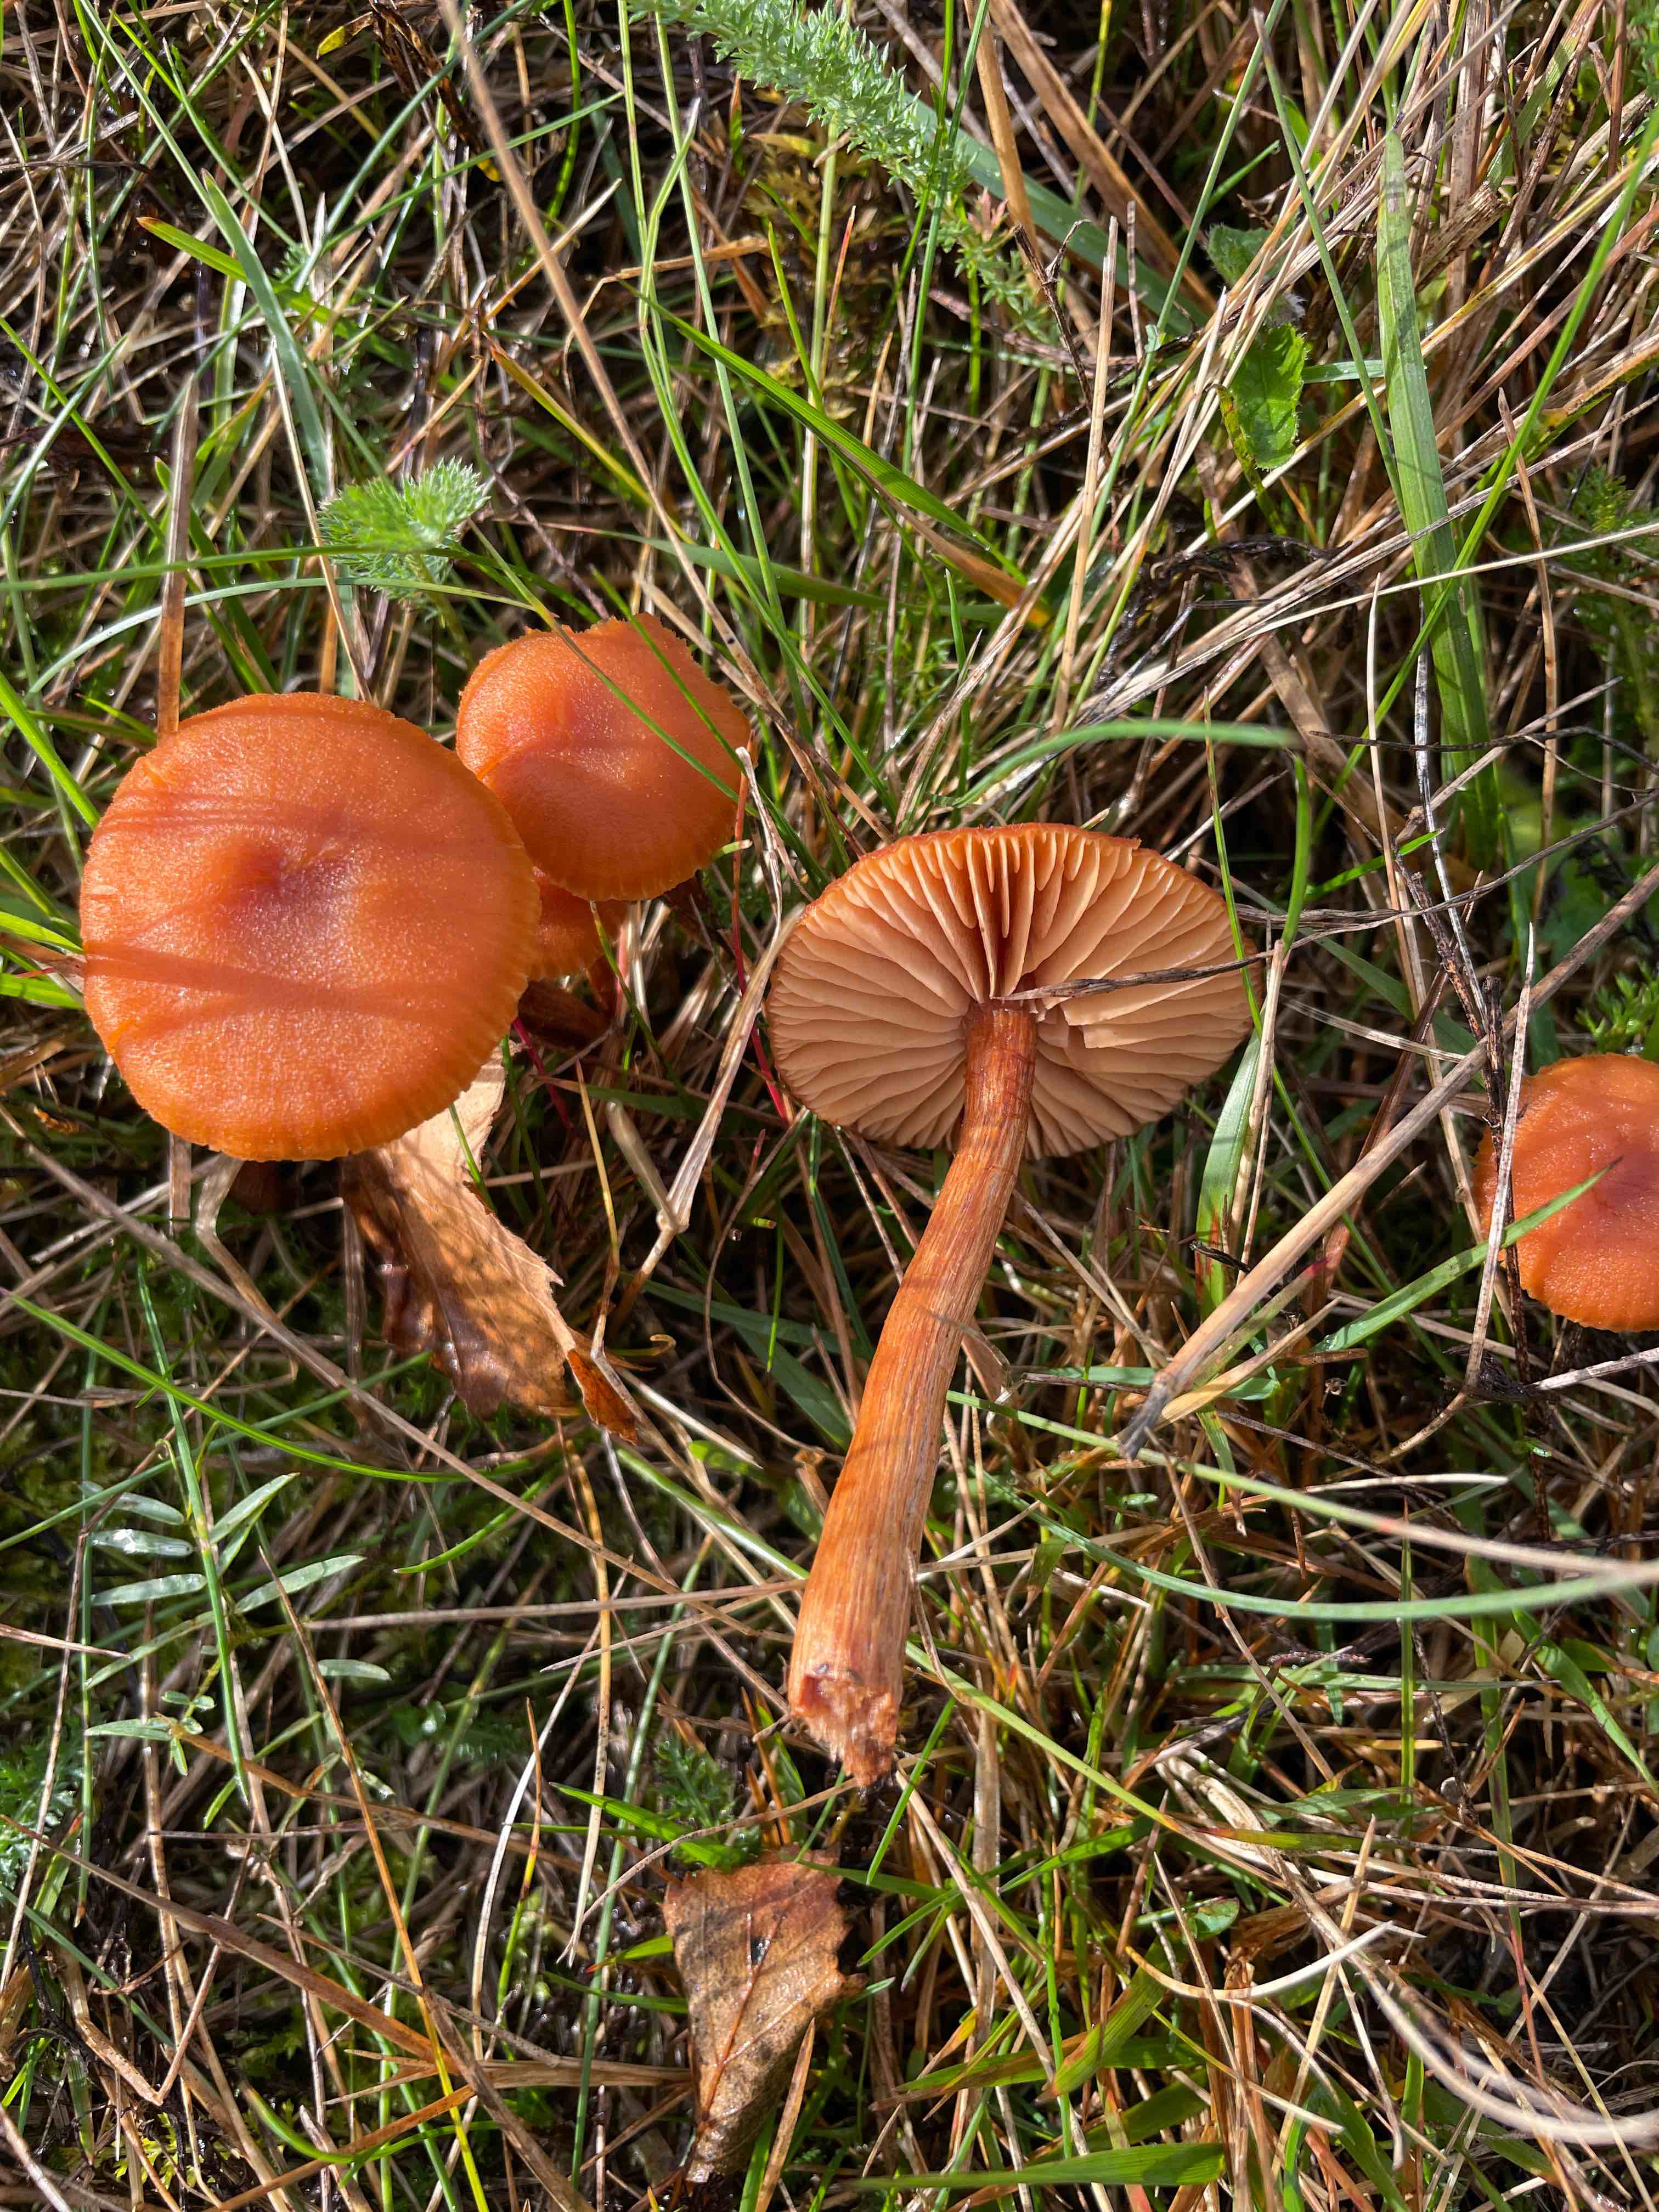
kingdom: Fungi
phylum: Basidiomycota
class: Agaricomycetes
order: Agaricales
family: Hydnangiaceae
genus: Laccaria
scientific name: Laccaria proxima
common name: stor ametysthat
